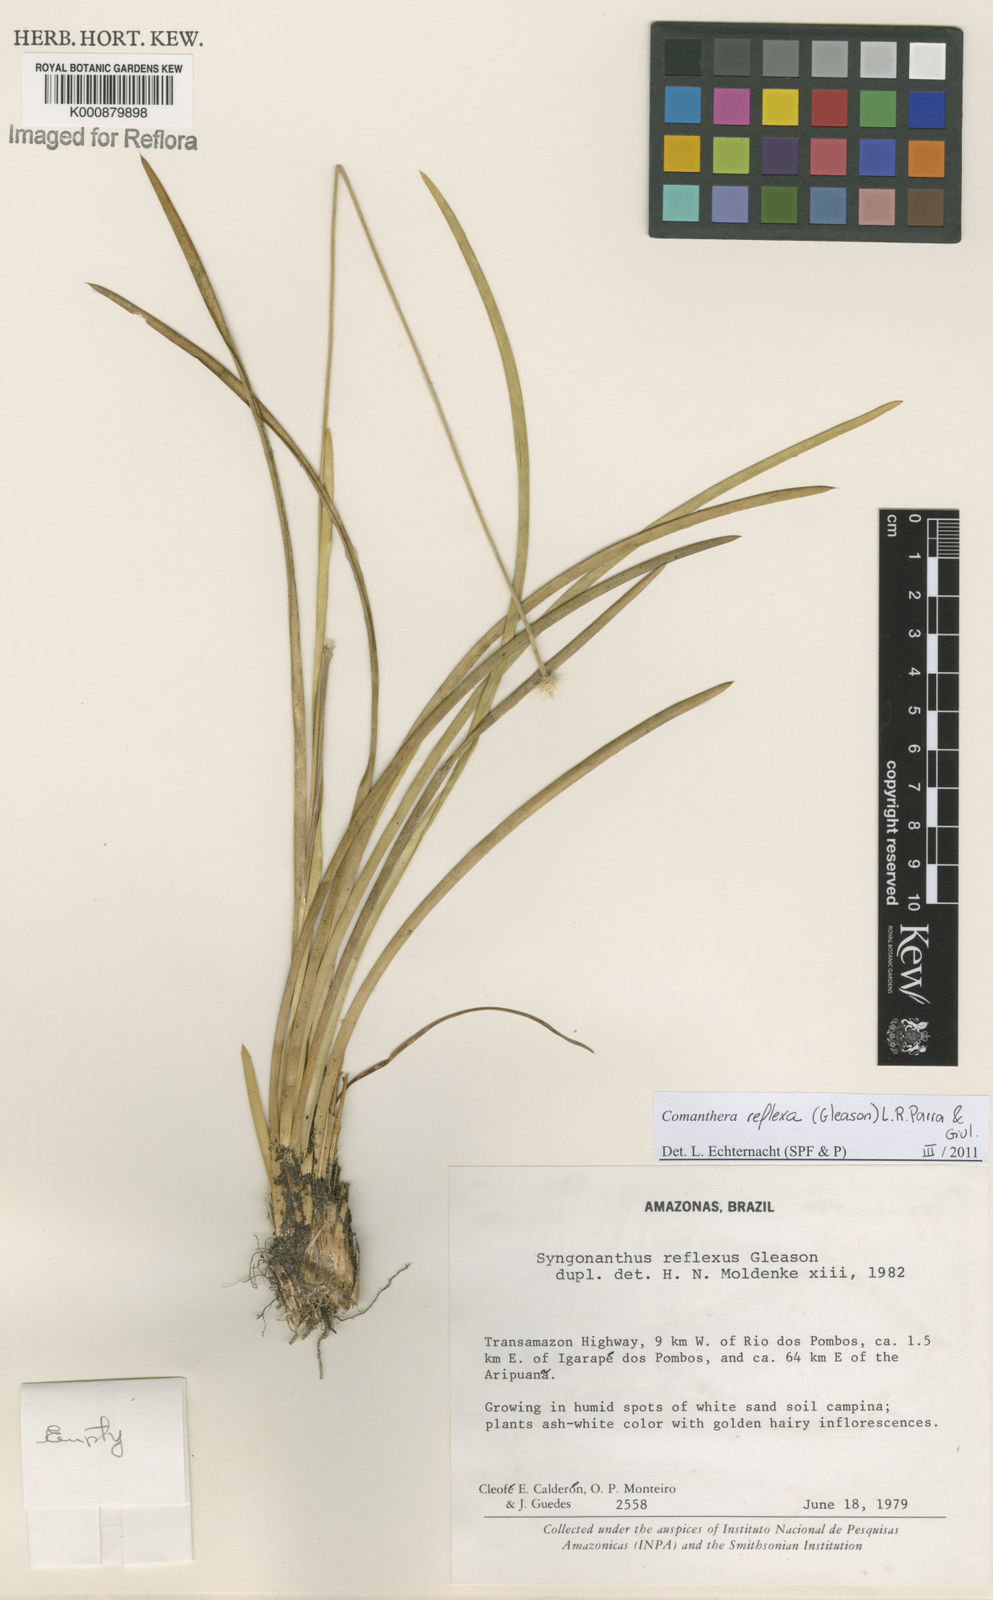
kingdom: Plantae
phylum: Tracheophyta
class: Liliopsida
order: Poales
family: Eriocaulaceae
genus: Comanthera
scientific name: Comanthera reflexa
